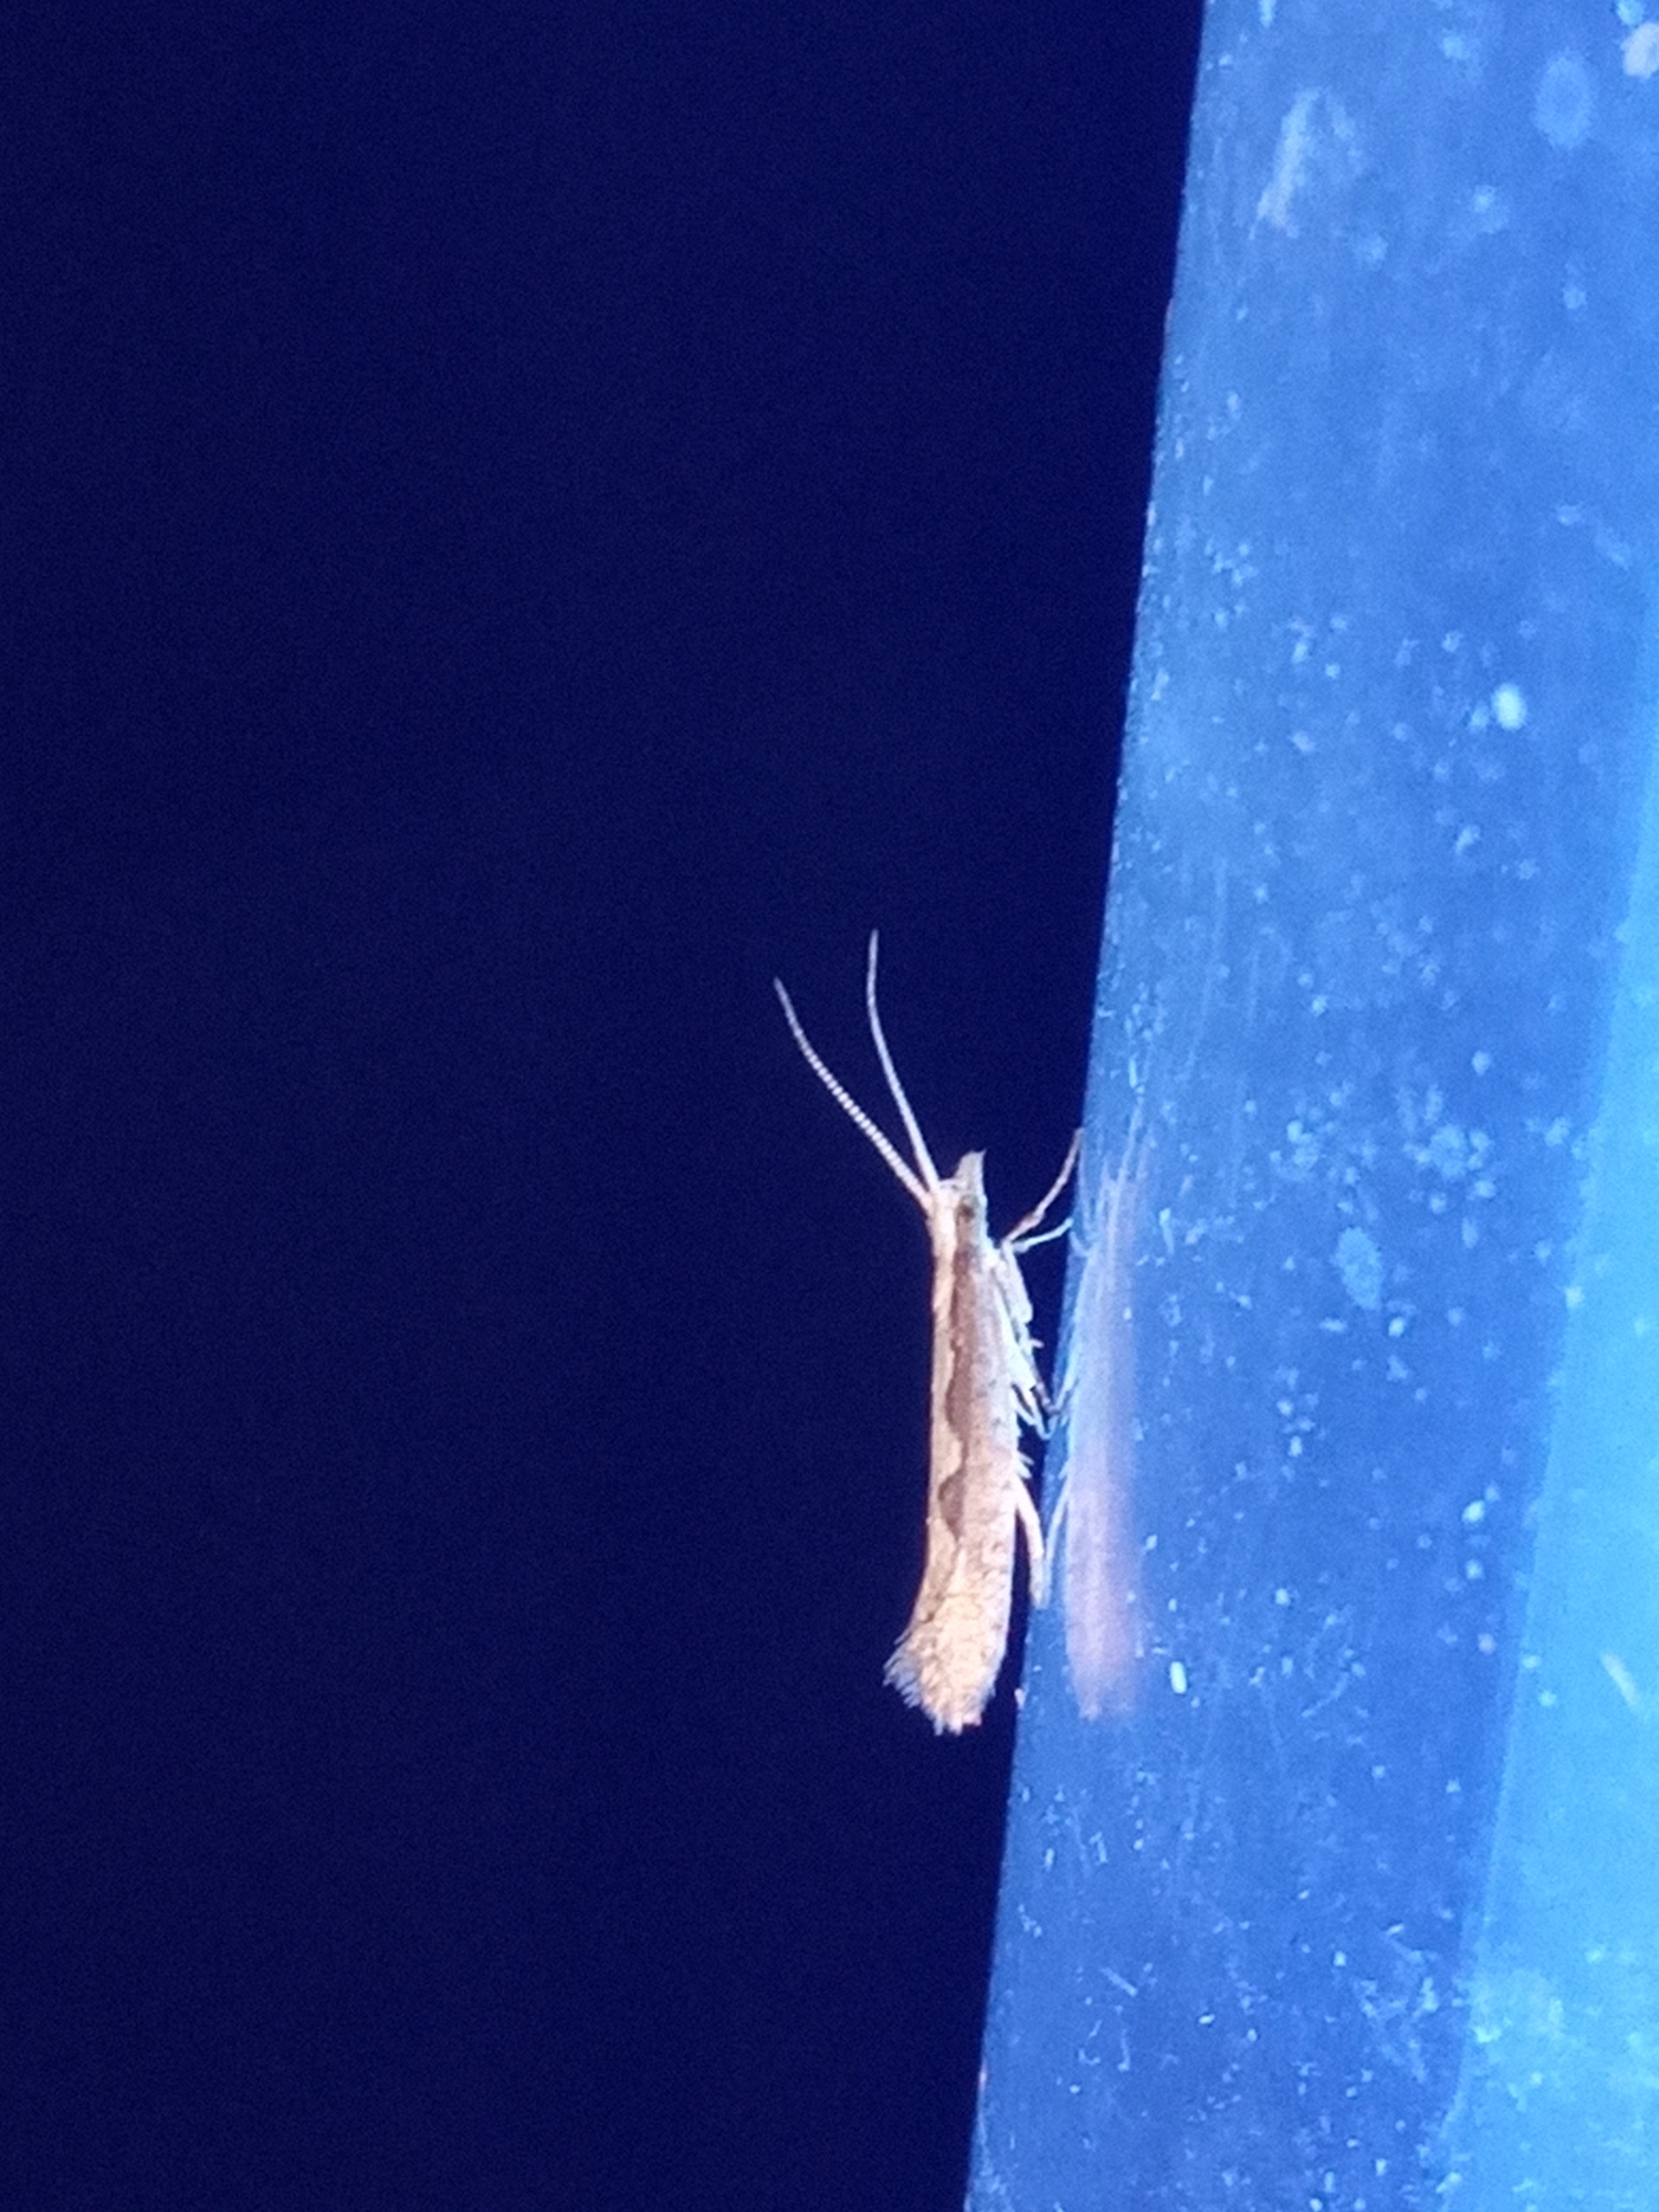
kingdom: Animalia
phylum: Arthropoda
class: Insecta
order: Lepidoptera
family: Plutellidae
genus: Plutella
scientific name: Plutella xylostella
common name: Kålmøl
